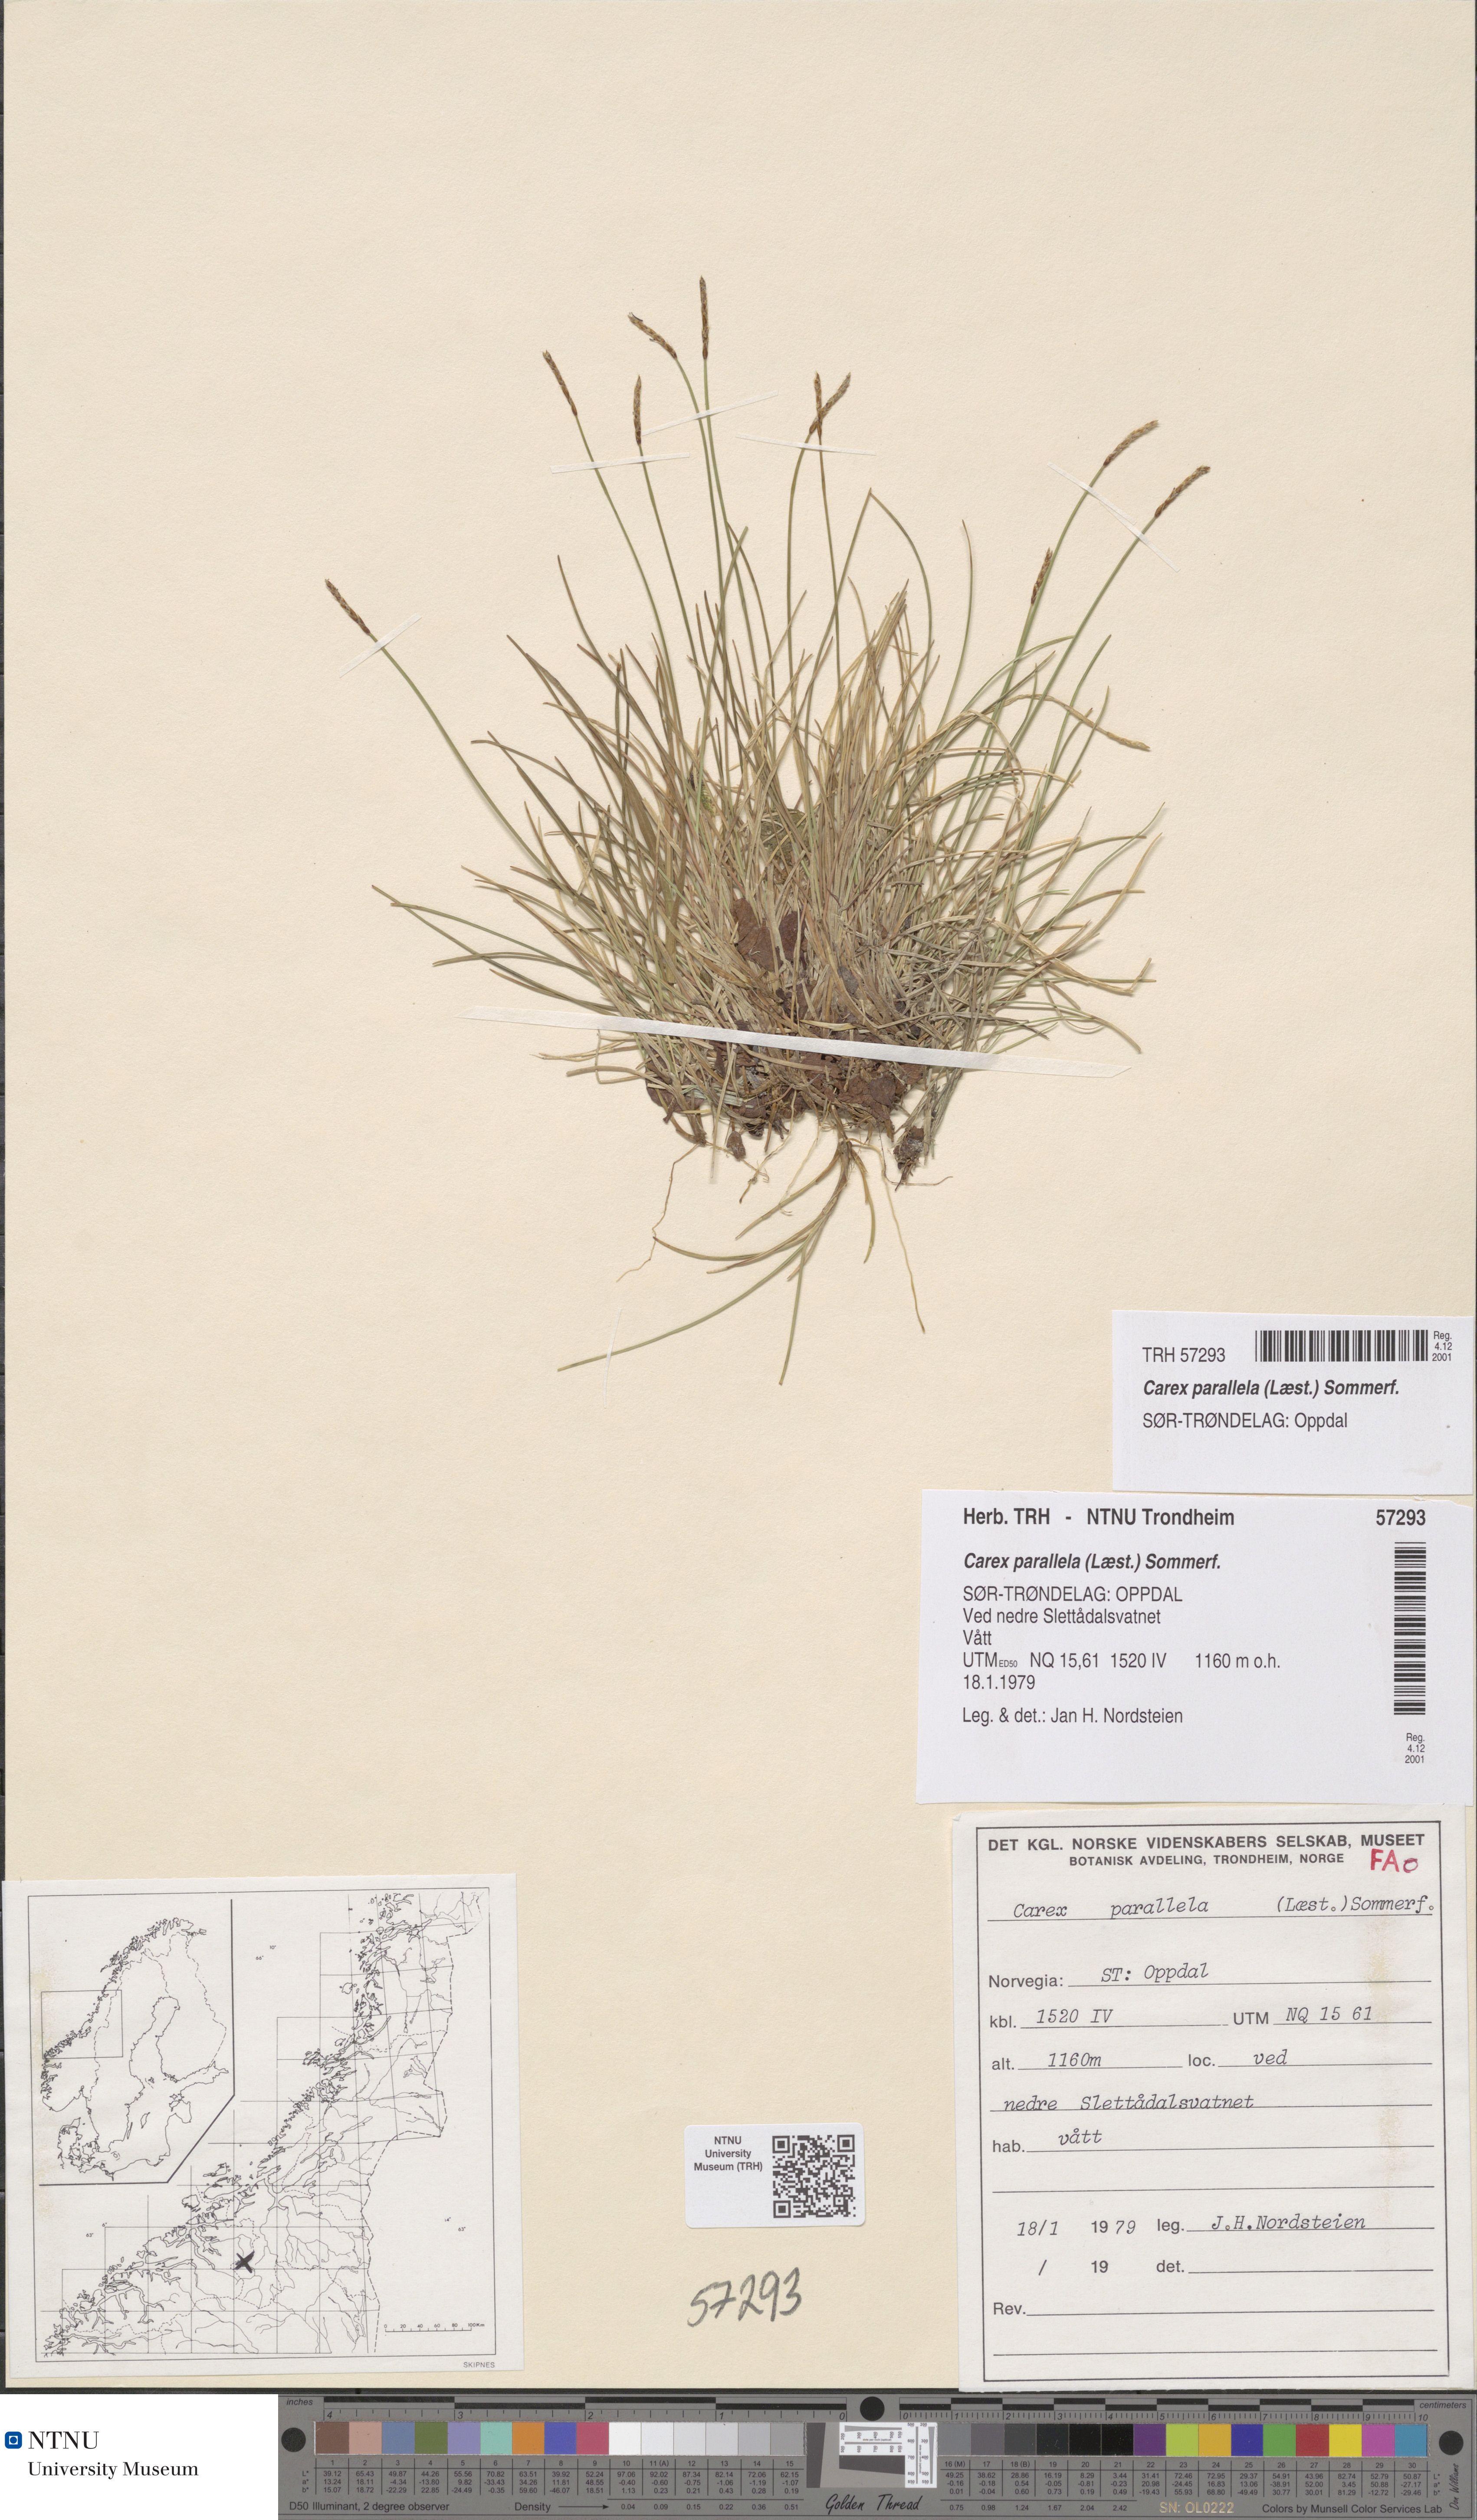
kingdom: Plantae
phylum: Tracheophyta
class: Liliopsida
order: Poales
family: Cyperaceae
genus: Carex
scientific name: Carex parallela
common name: Parallel sedge
